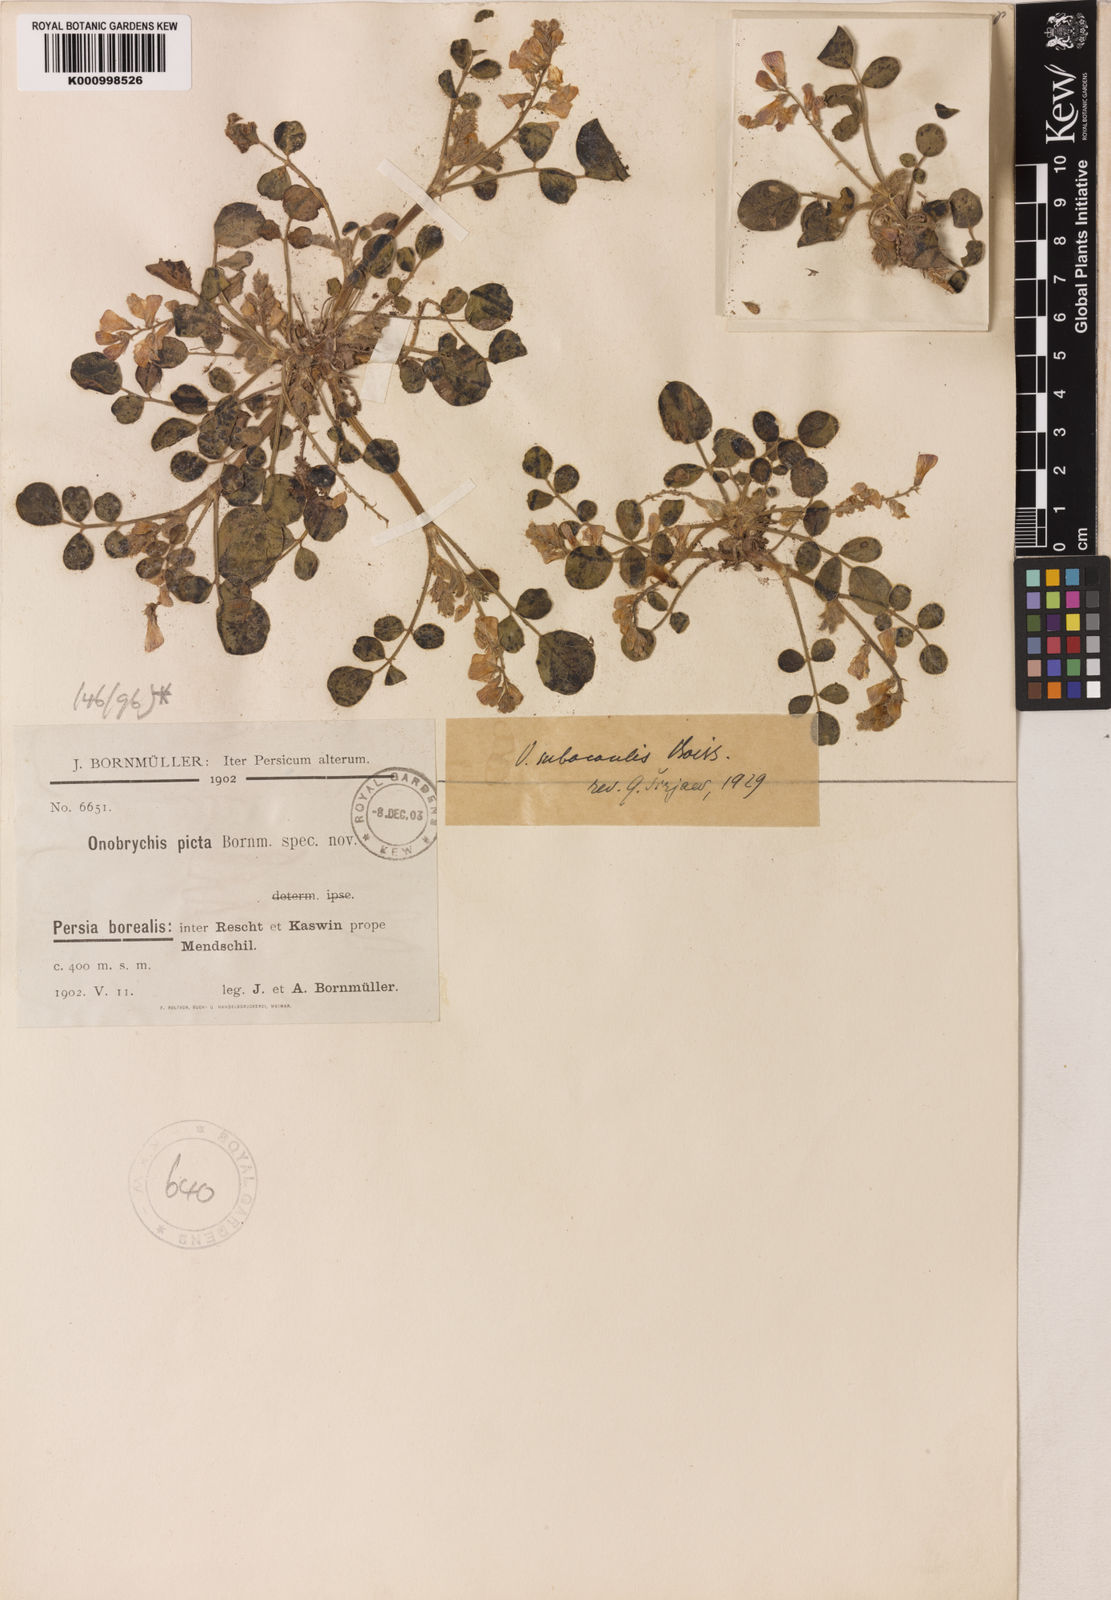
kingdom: Plantae
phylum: Tracheophyta
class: Magnoliopsida
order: Fabales
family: Fabaceae
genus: Onobrychis
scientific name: Onobrychis subacaulis
